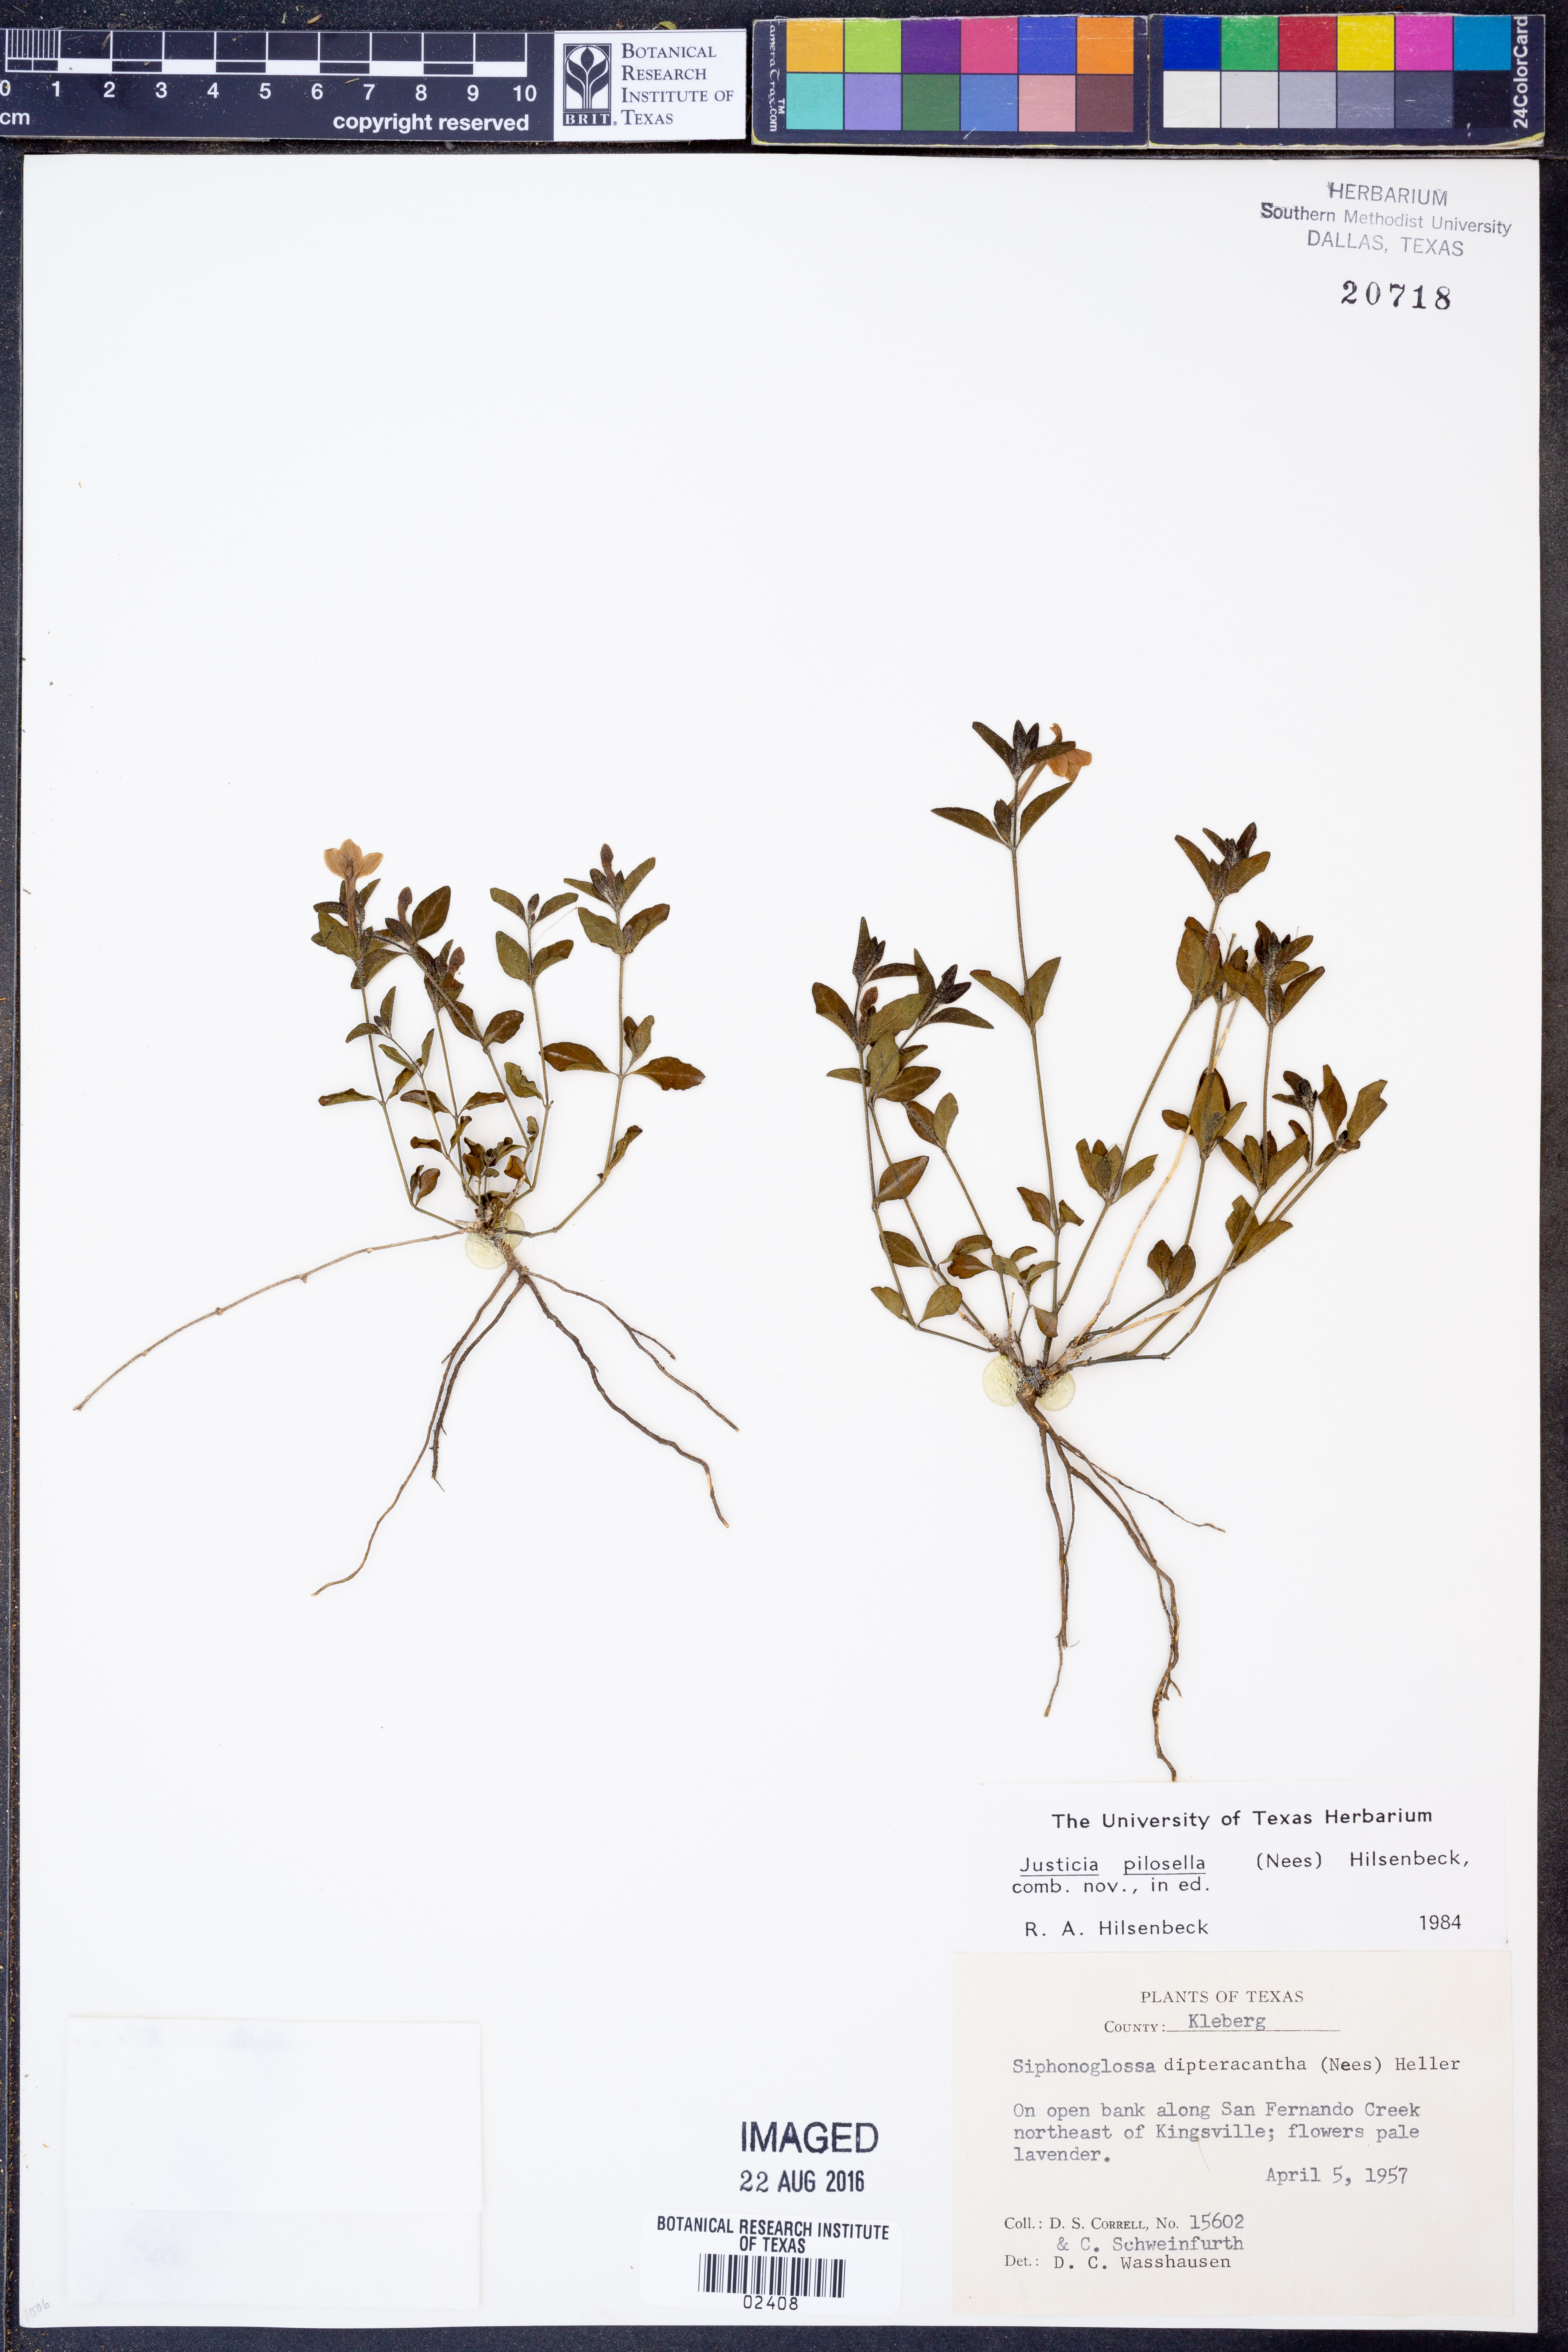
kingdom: Plantae
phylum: Tracheophyta
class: Magnoliopsida
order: Lamiales
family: Acanthaceae
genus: Justicia
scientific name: Justicia pilosella
